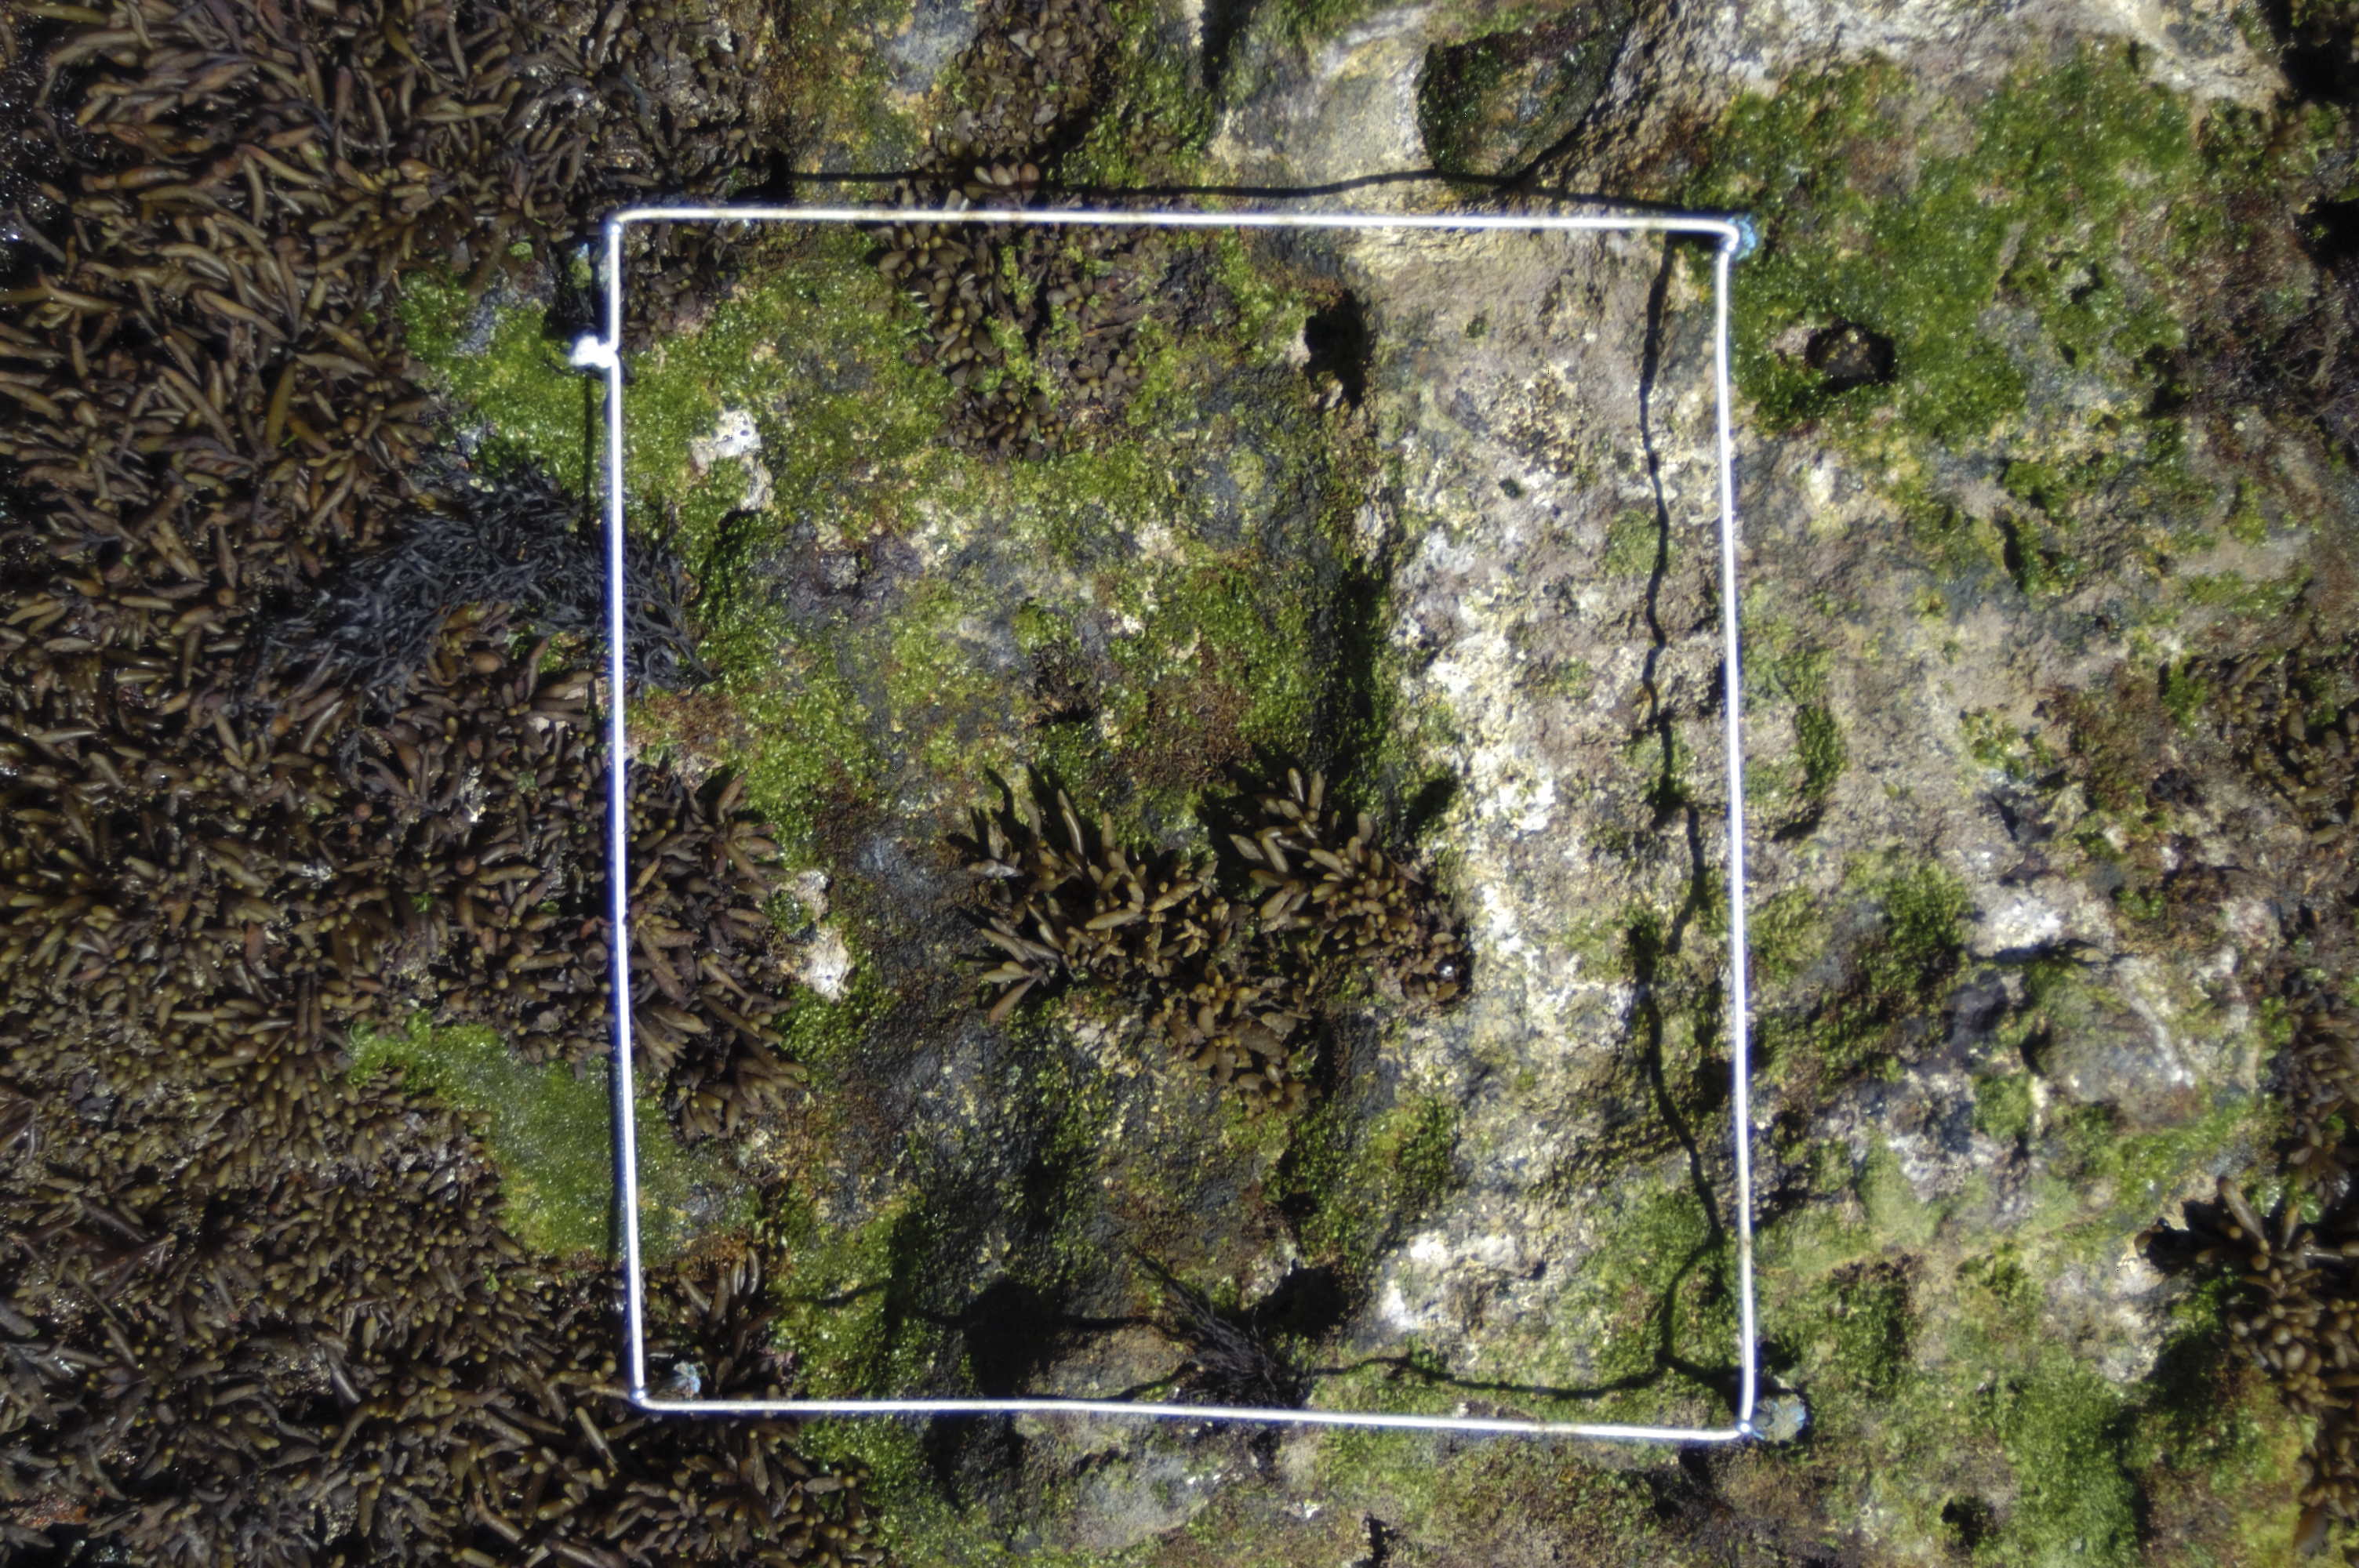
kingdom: Chromista
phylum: Ochrophyta
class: Phaeophyceae
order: Fucales
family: Sargassaceae
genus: Sargassum
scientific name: Sargassum fusiforme
